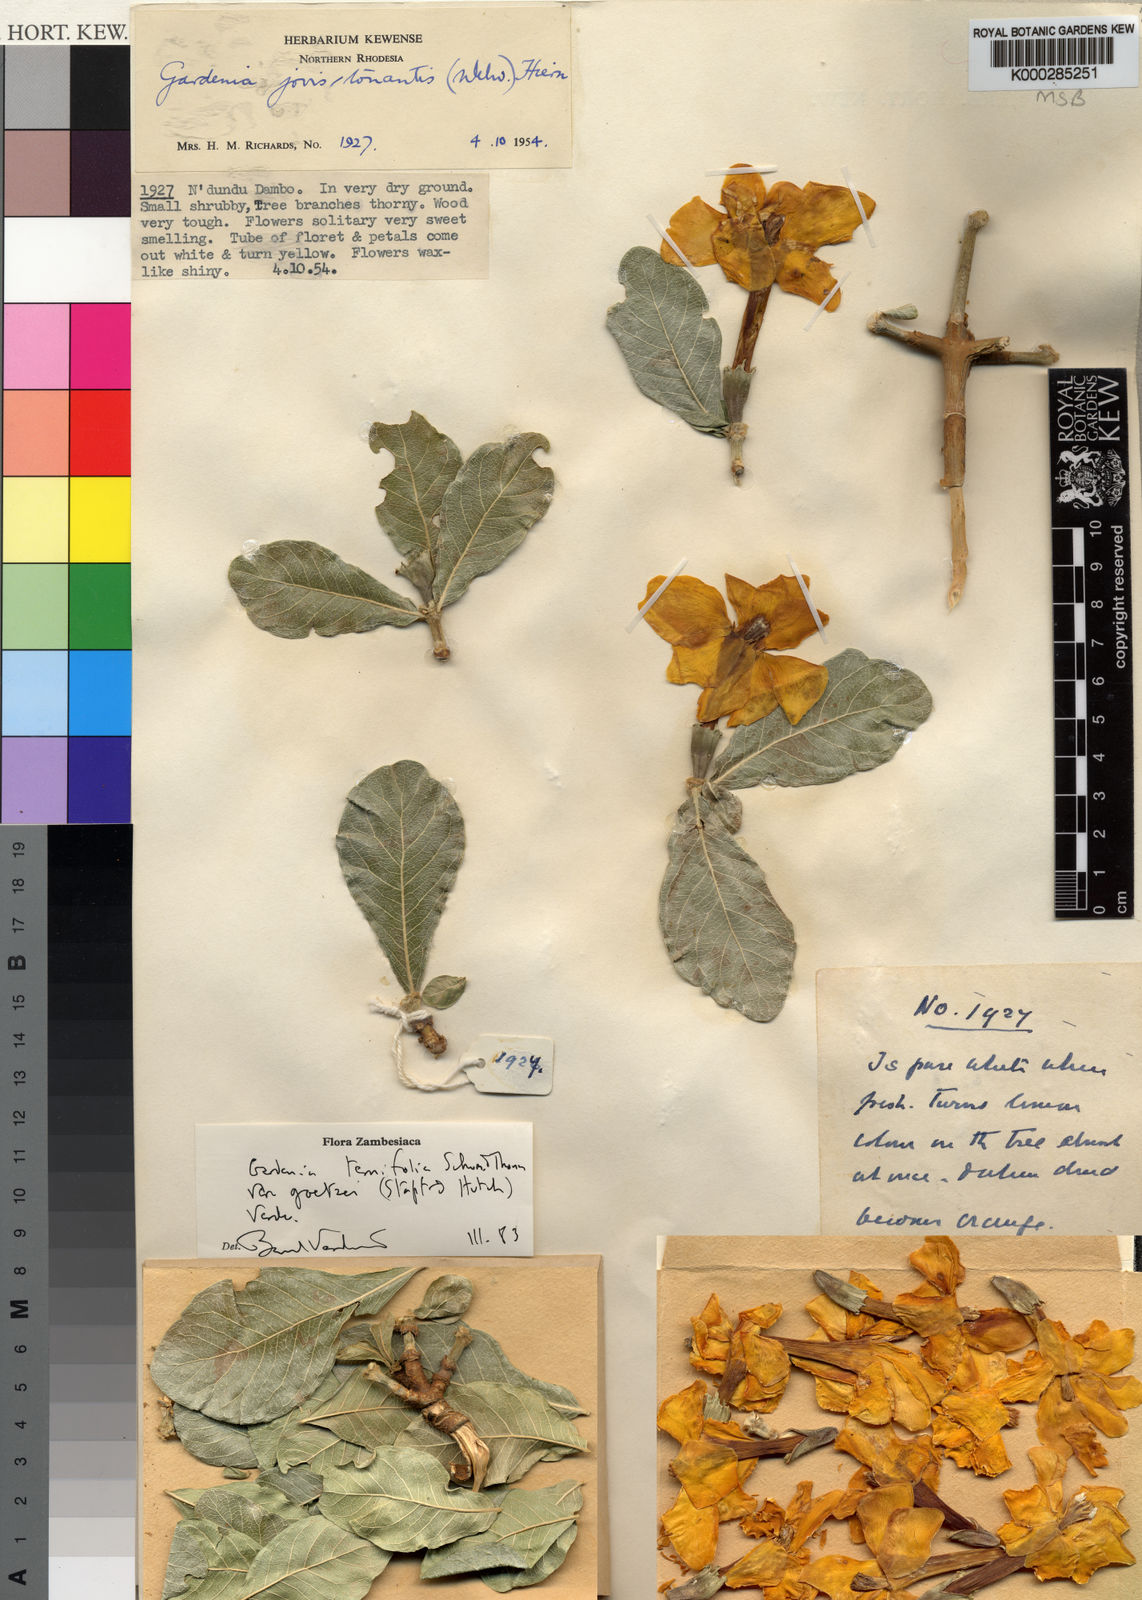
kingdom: Plantae
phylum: Tracheophyta
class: Magnoliopsida
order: Gentianales
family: Rubiaceae
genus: Gardenia
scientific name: Gardenia ternifolia
